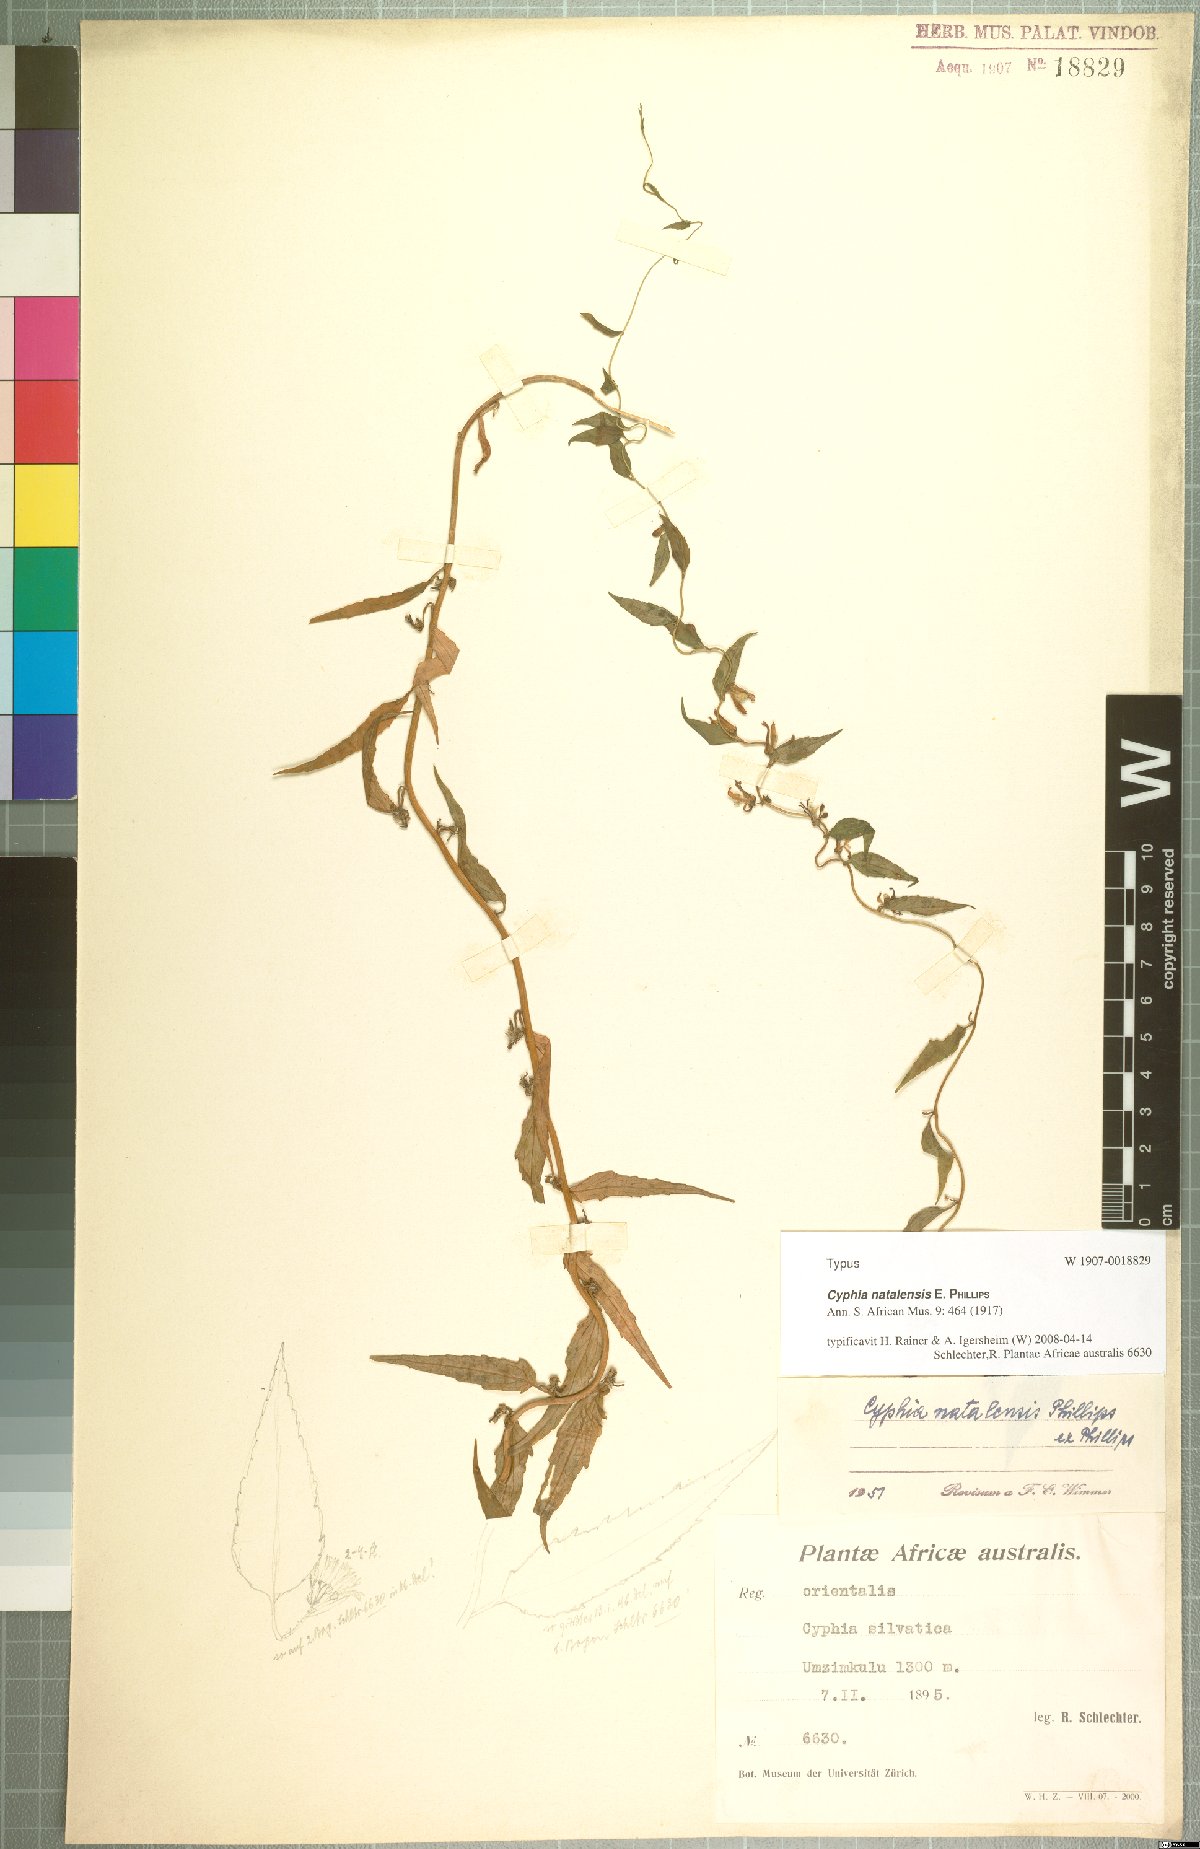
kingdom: Plantae
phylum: Tracheophyta
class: Magnoliopsida
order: Asterales
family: Campanulaceae
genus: Cyphia
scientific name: Cyphia natalensis
